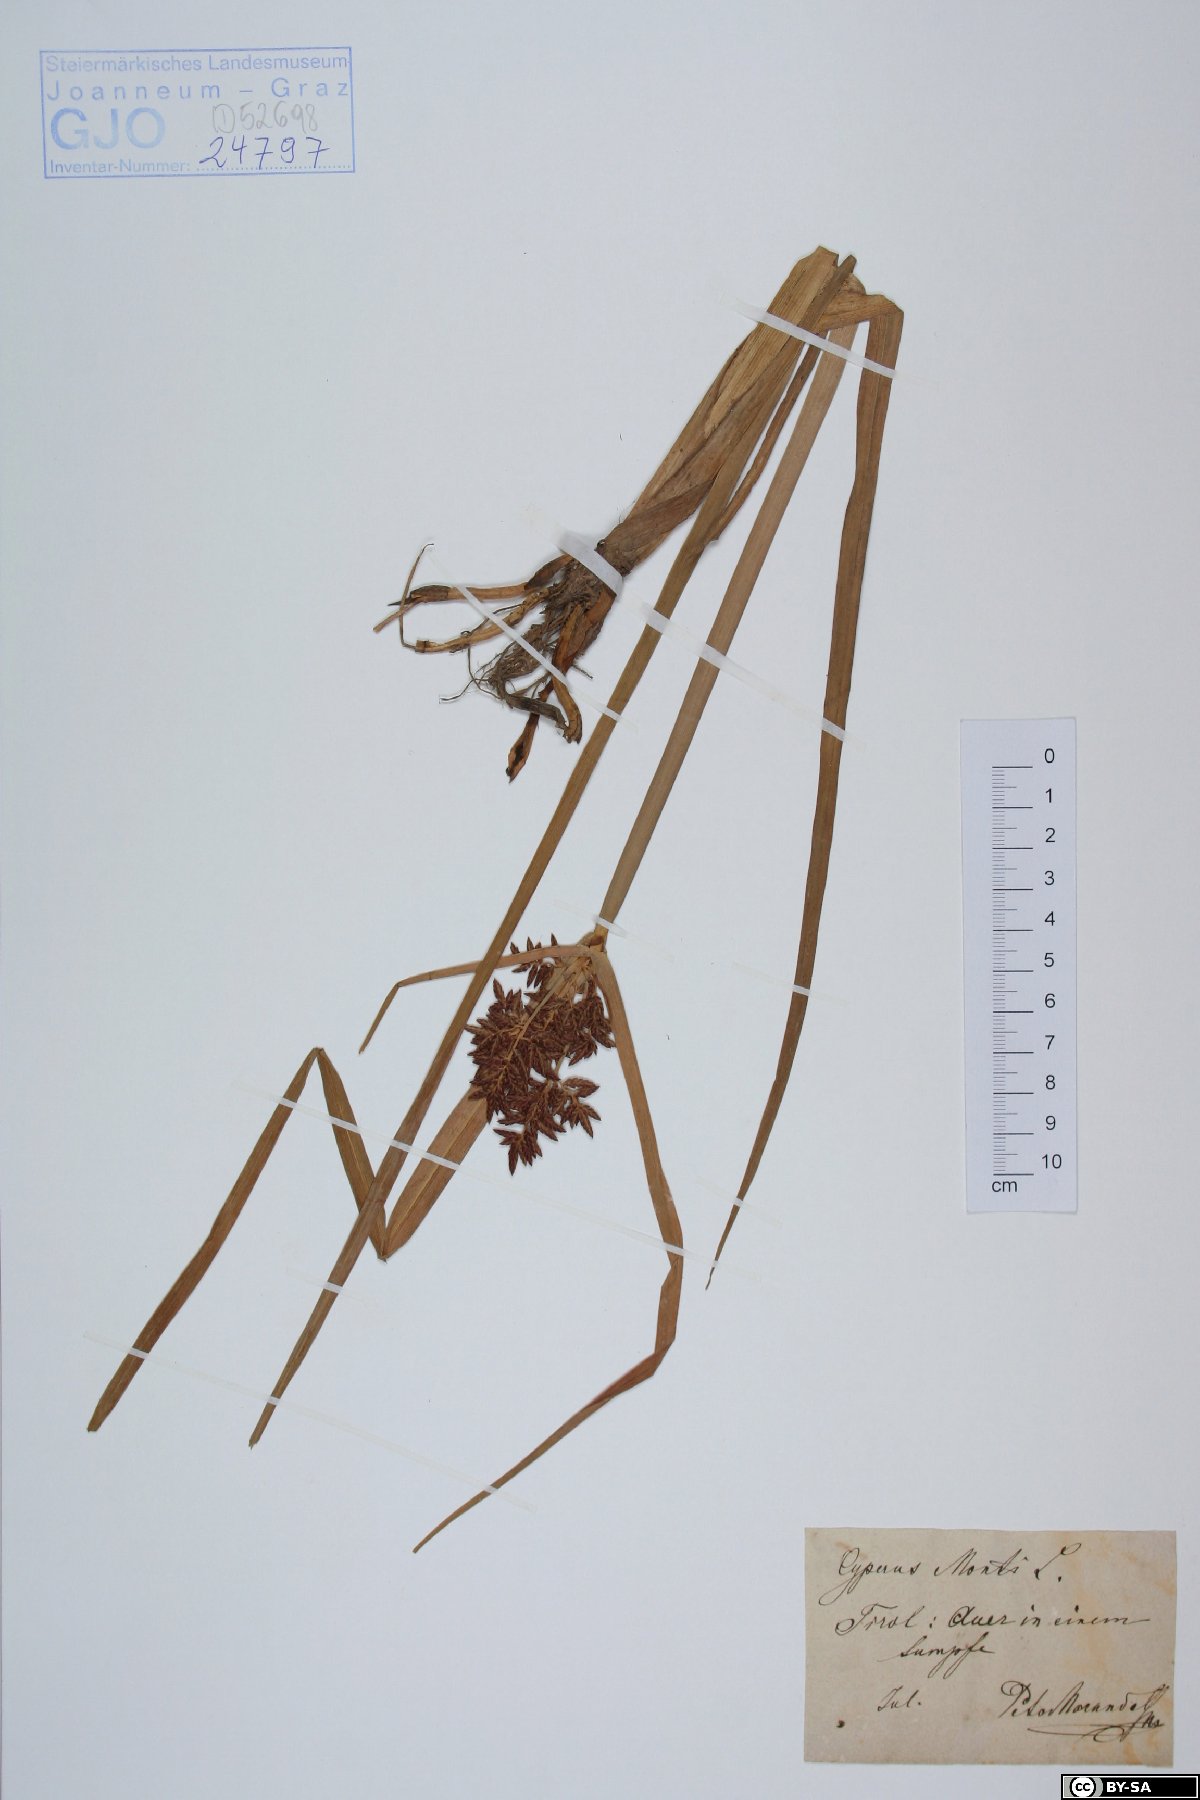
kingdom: Plantae
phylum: Tracheophyta
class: Liliopsida
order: Poales
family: Cyperaceae
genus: Cyperus
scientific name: Cyperus serotinus
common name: Tidalmarsh flatsedge
